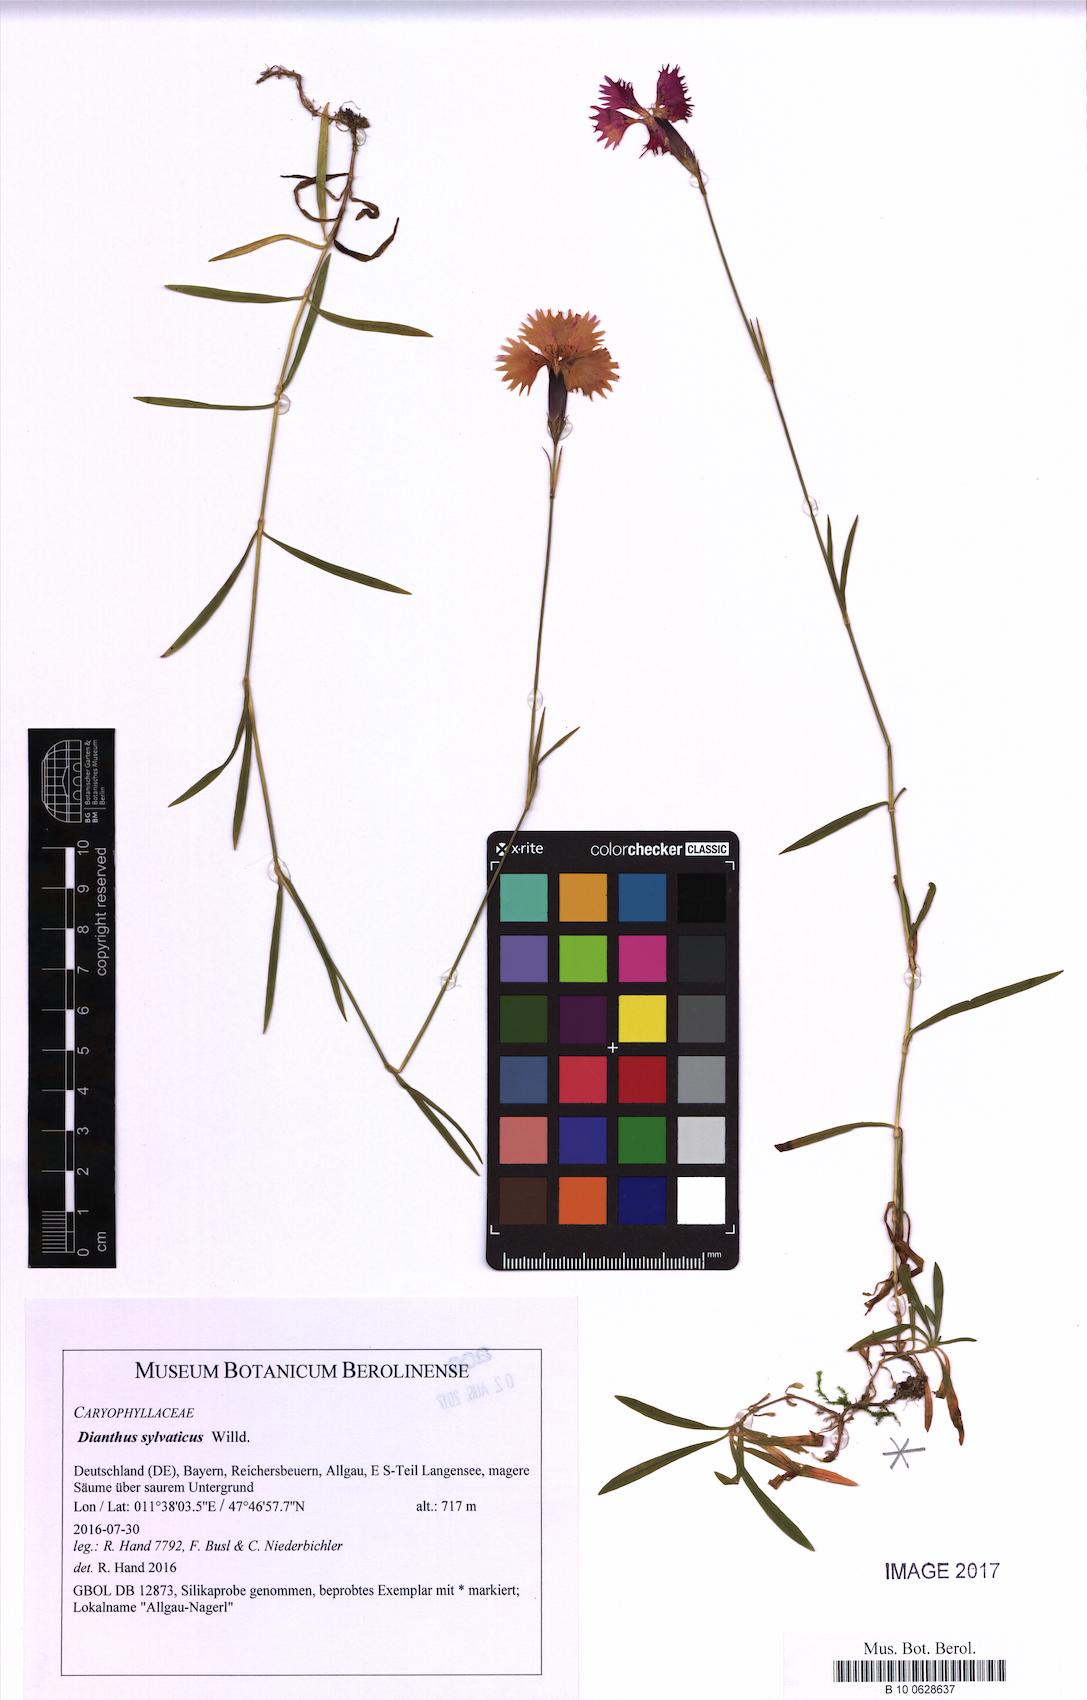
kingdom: Plantae
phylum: Tracheophyta
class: Magnoliopsida
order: Caryophyllales
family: Caryophyllaceae
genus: Dianthus
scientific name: Dianthus sylvaticus
